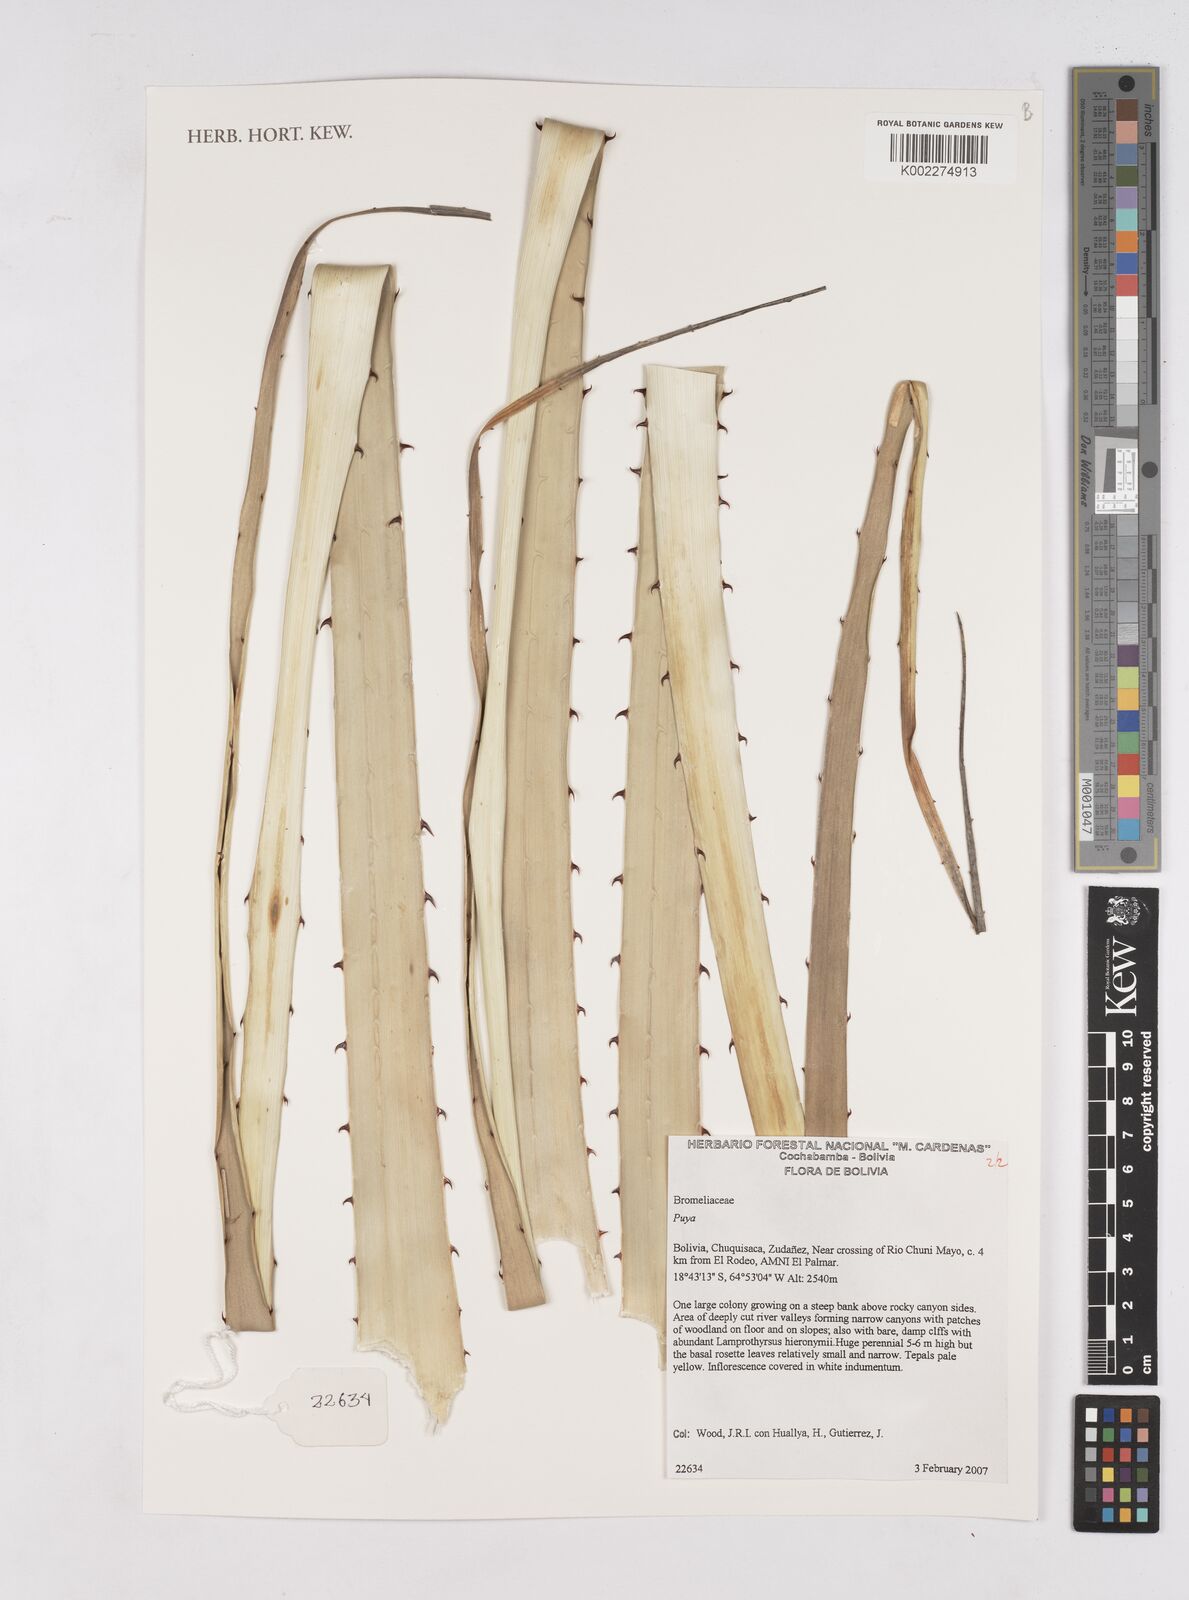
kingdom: Plantae
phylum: Tracheophyta
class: Liliopsida
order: Poales
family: Bromeliaceae
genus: Puya
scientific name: Puya
